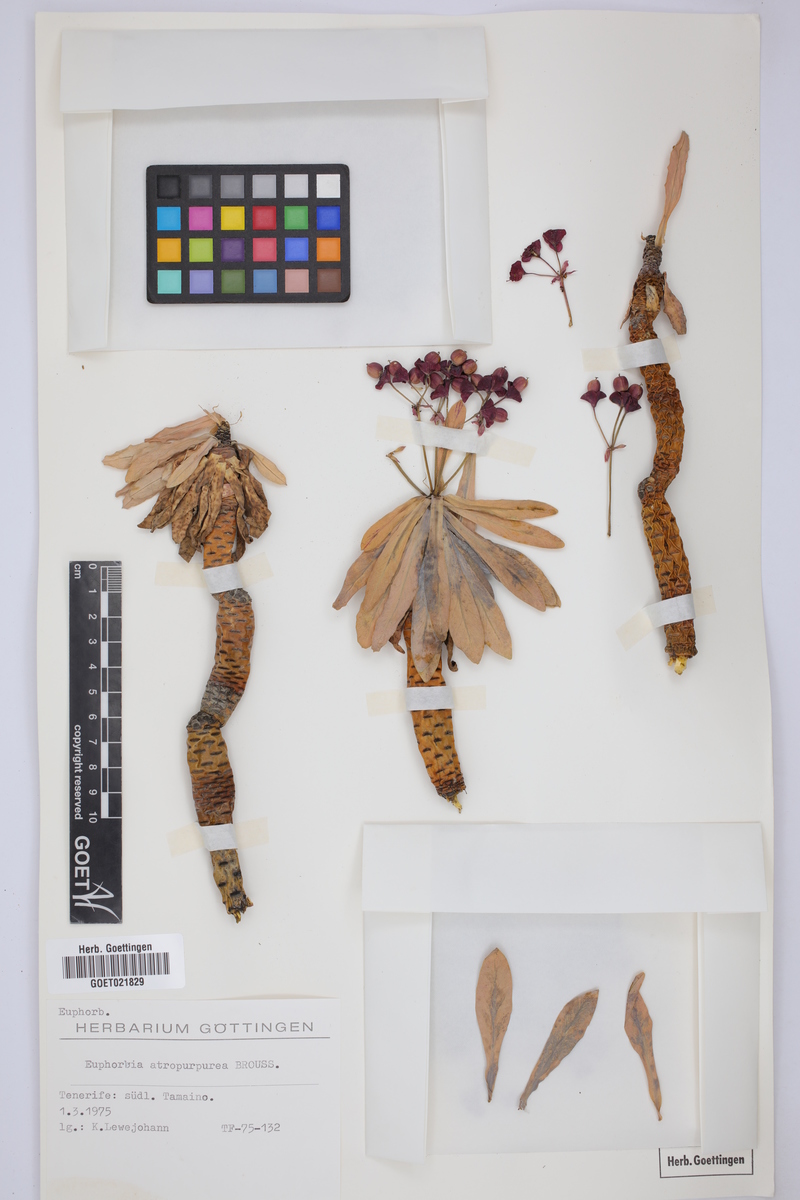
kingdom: Plantae
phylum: Tracheophyta
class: Magnoliopsida
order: Malpighiales
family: Euphorbiaceae
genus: Euphorbia
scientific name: Euphorbia atropurpurea
